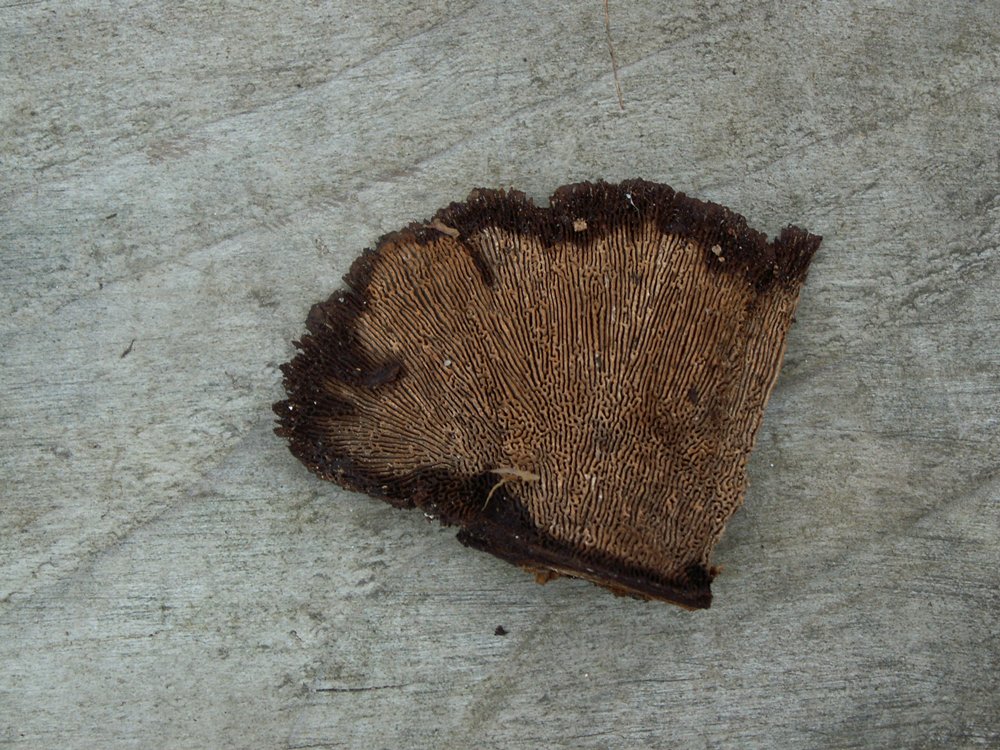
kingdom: Fungi
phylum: Basidiomycota
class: Agaricomycetes
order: Gloeophyllales
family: Gloeophyllaceae
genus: Gloeophyllum
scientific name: Gloeophyllum sepiarium
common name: fyrre-korkhat
